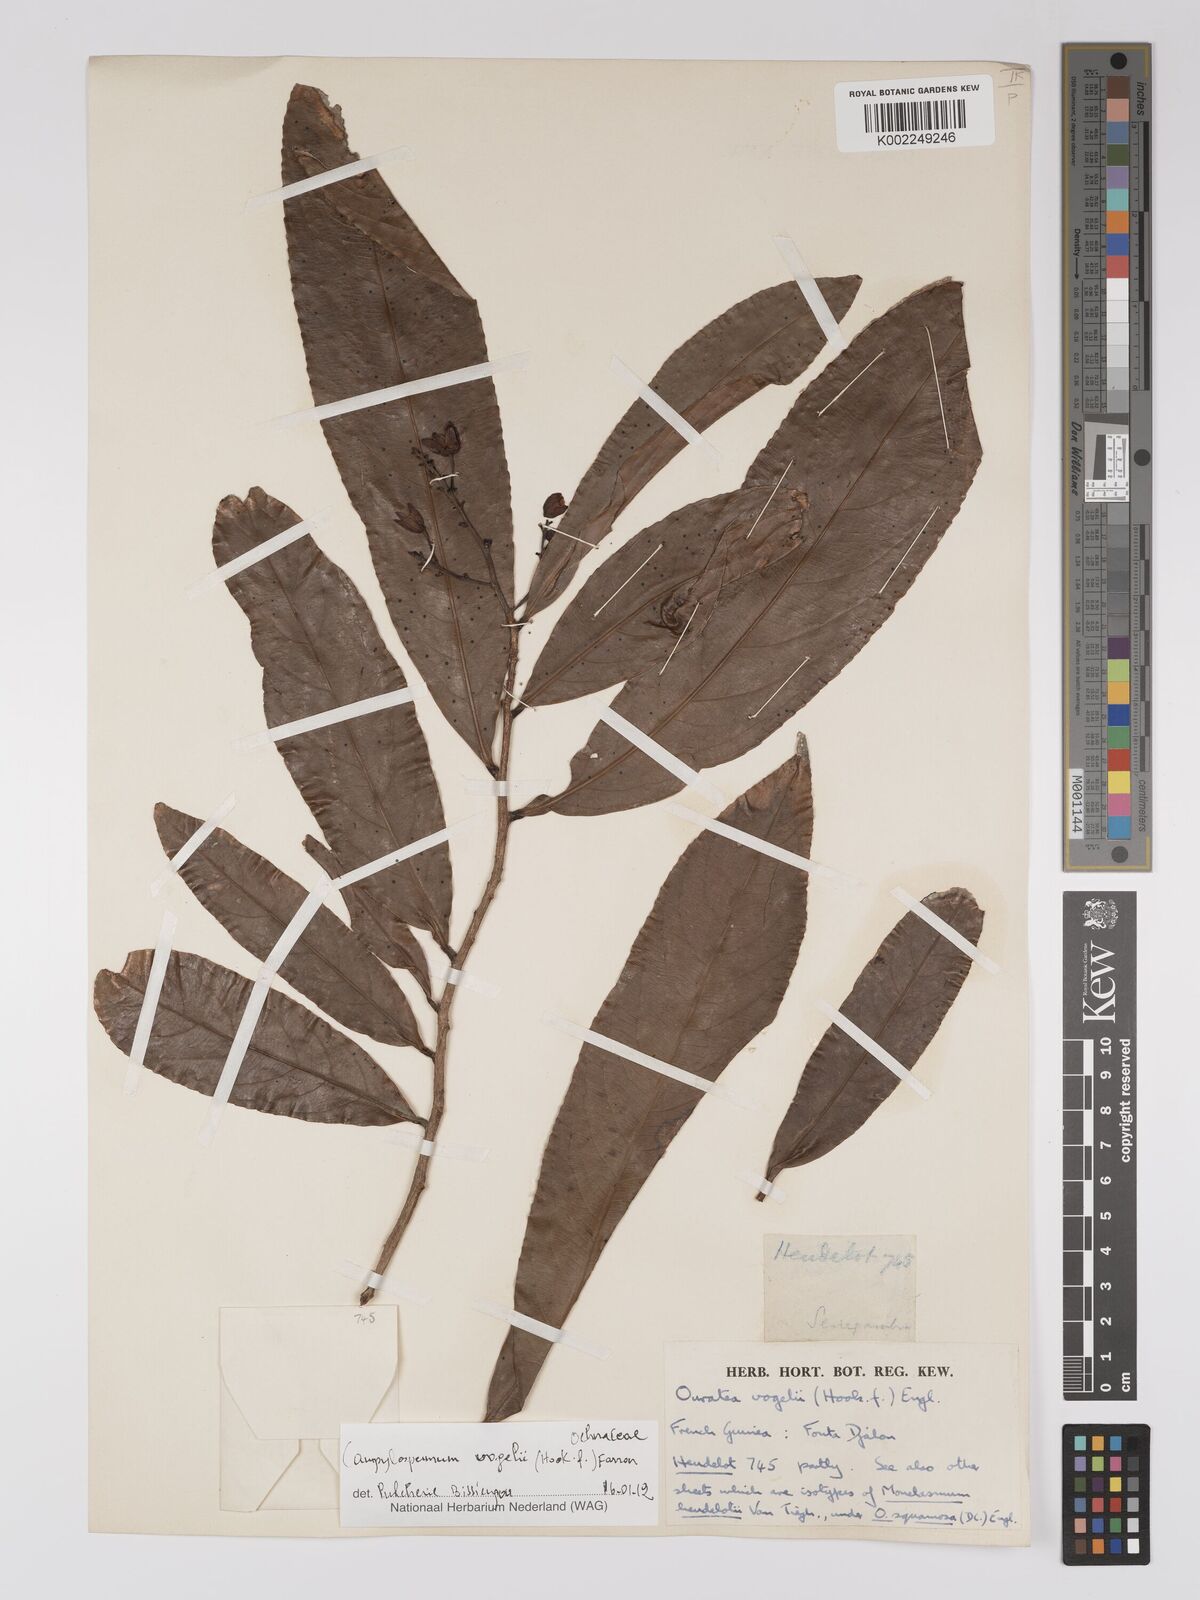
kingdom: Plantae
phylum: Tracheophyta
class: Magnoliopsida
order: Malpighiales
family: Ochnaceae
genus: Campylospermum
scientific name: Campylospermum vogelii
